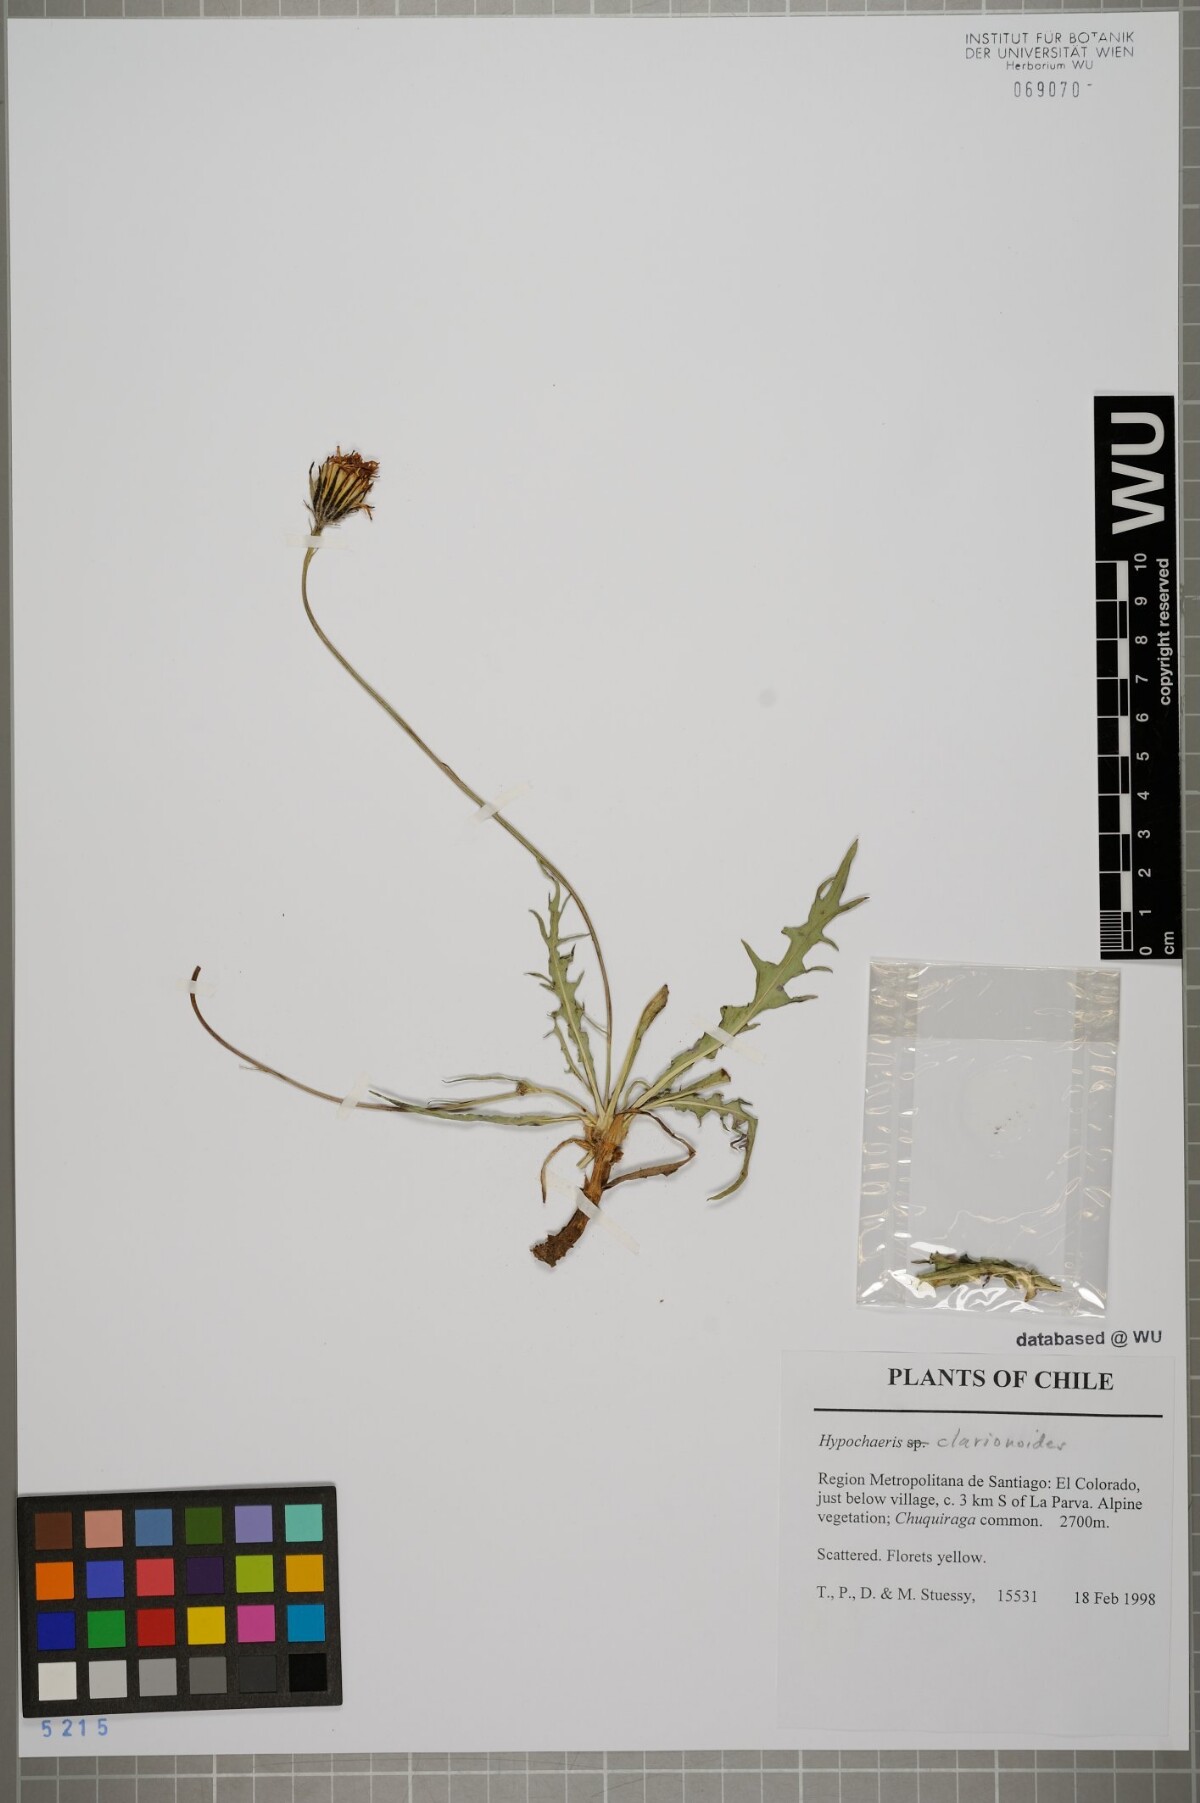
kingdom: Plantae
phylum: Tracheophyta
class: Magnoliopsida
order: Asterales
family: Asteraceae
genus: Hypochaeris
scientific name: Hypochaeris clarionoides
